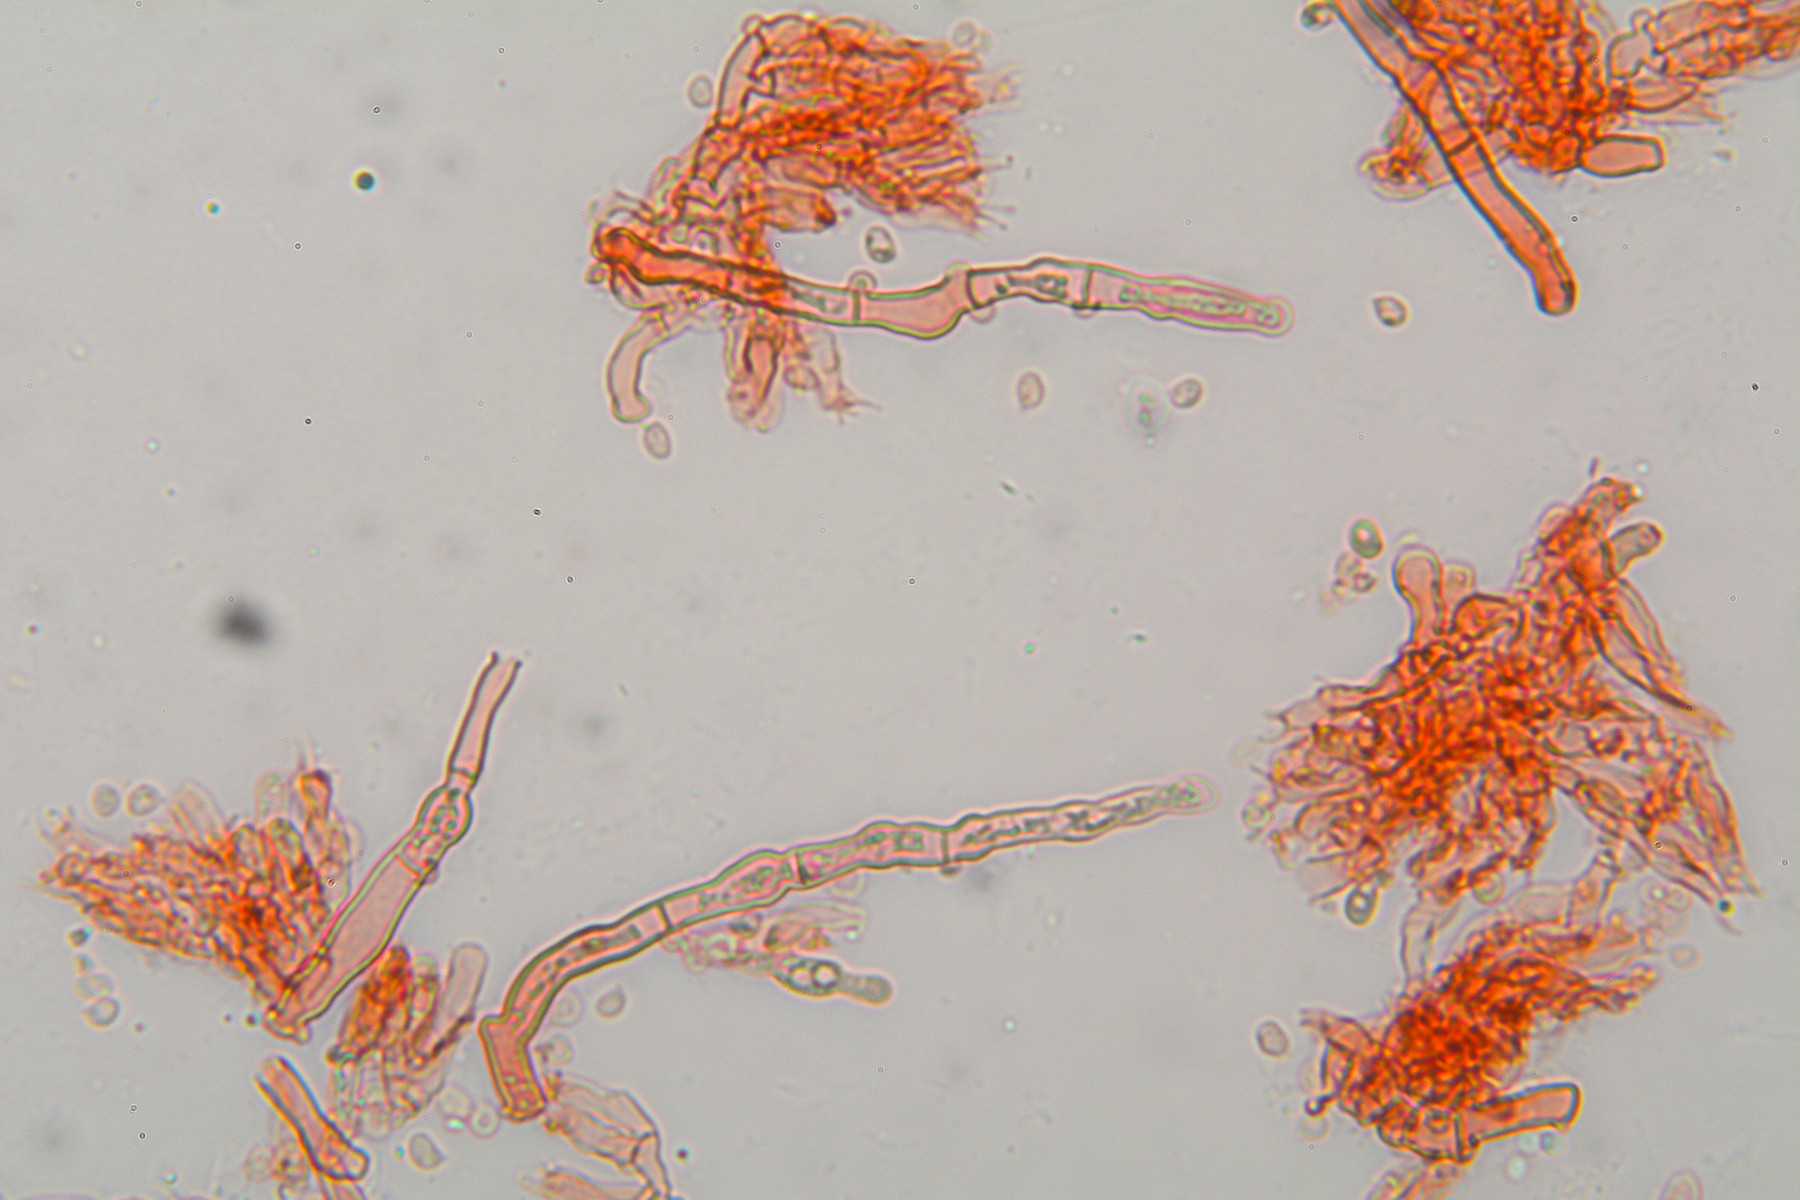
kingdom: Fungi
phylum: Basidiomycota
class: Agaricomycetes
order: Hymenochaetales
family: Hyphodontiaceae
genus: Hyphodontia
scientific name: Hyphodontia pallidula
